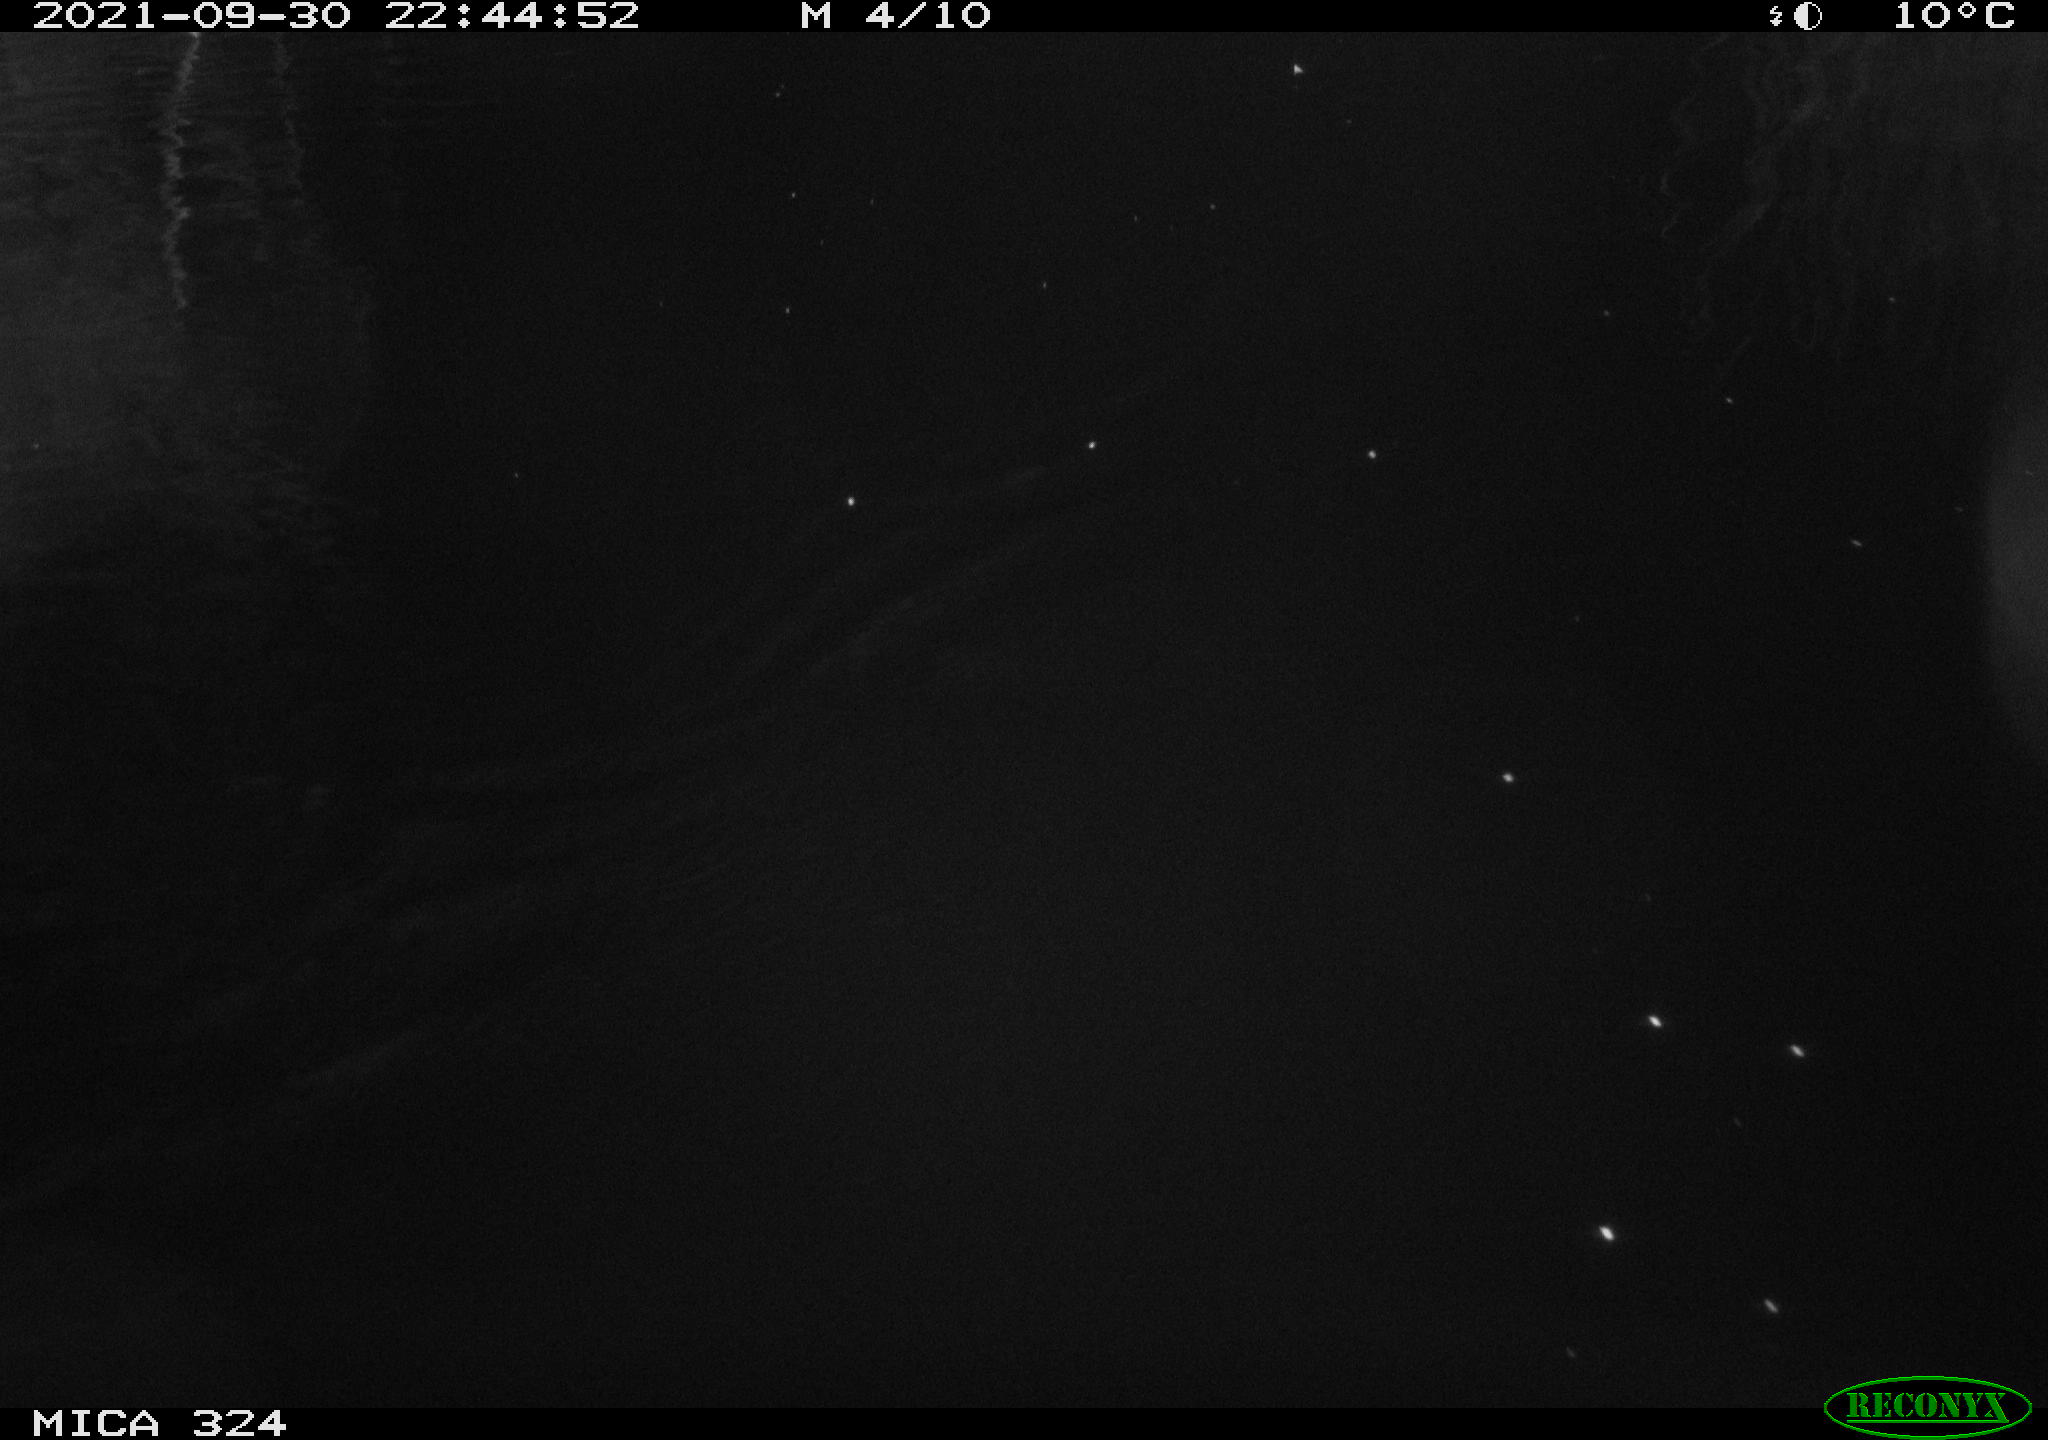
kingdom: Animalia
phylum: Chordata
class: Mammalia
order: Rodentia
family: Cricetidae
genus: Ondatra
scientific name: Ondatra zibethicus
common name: Muskrat
